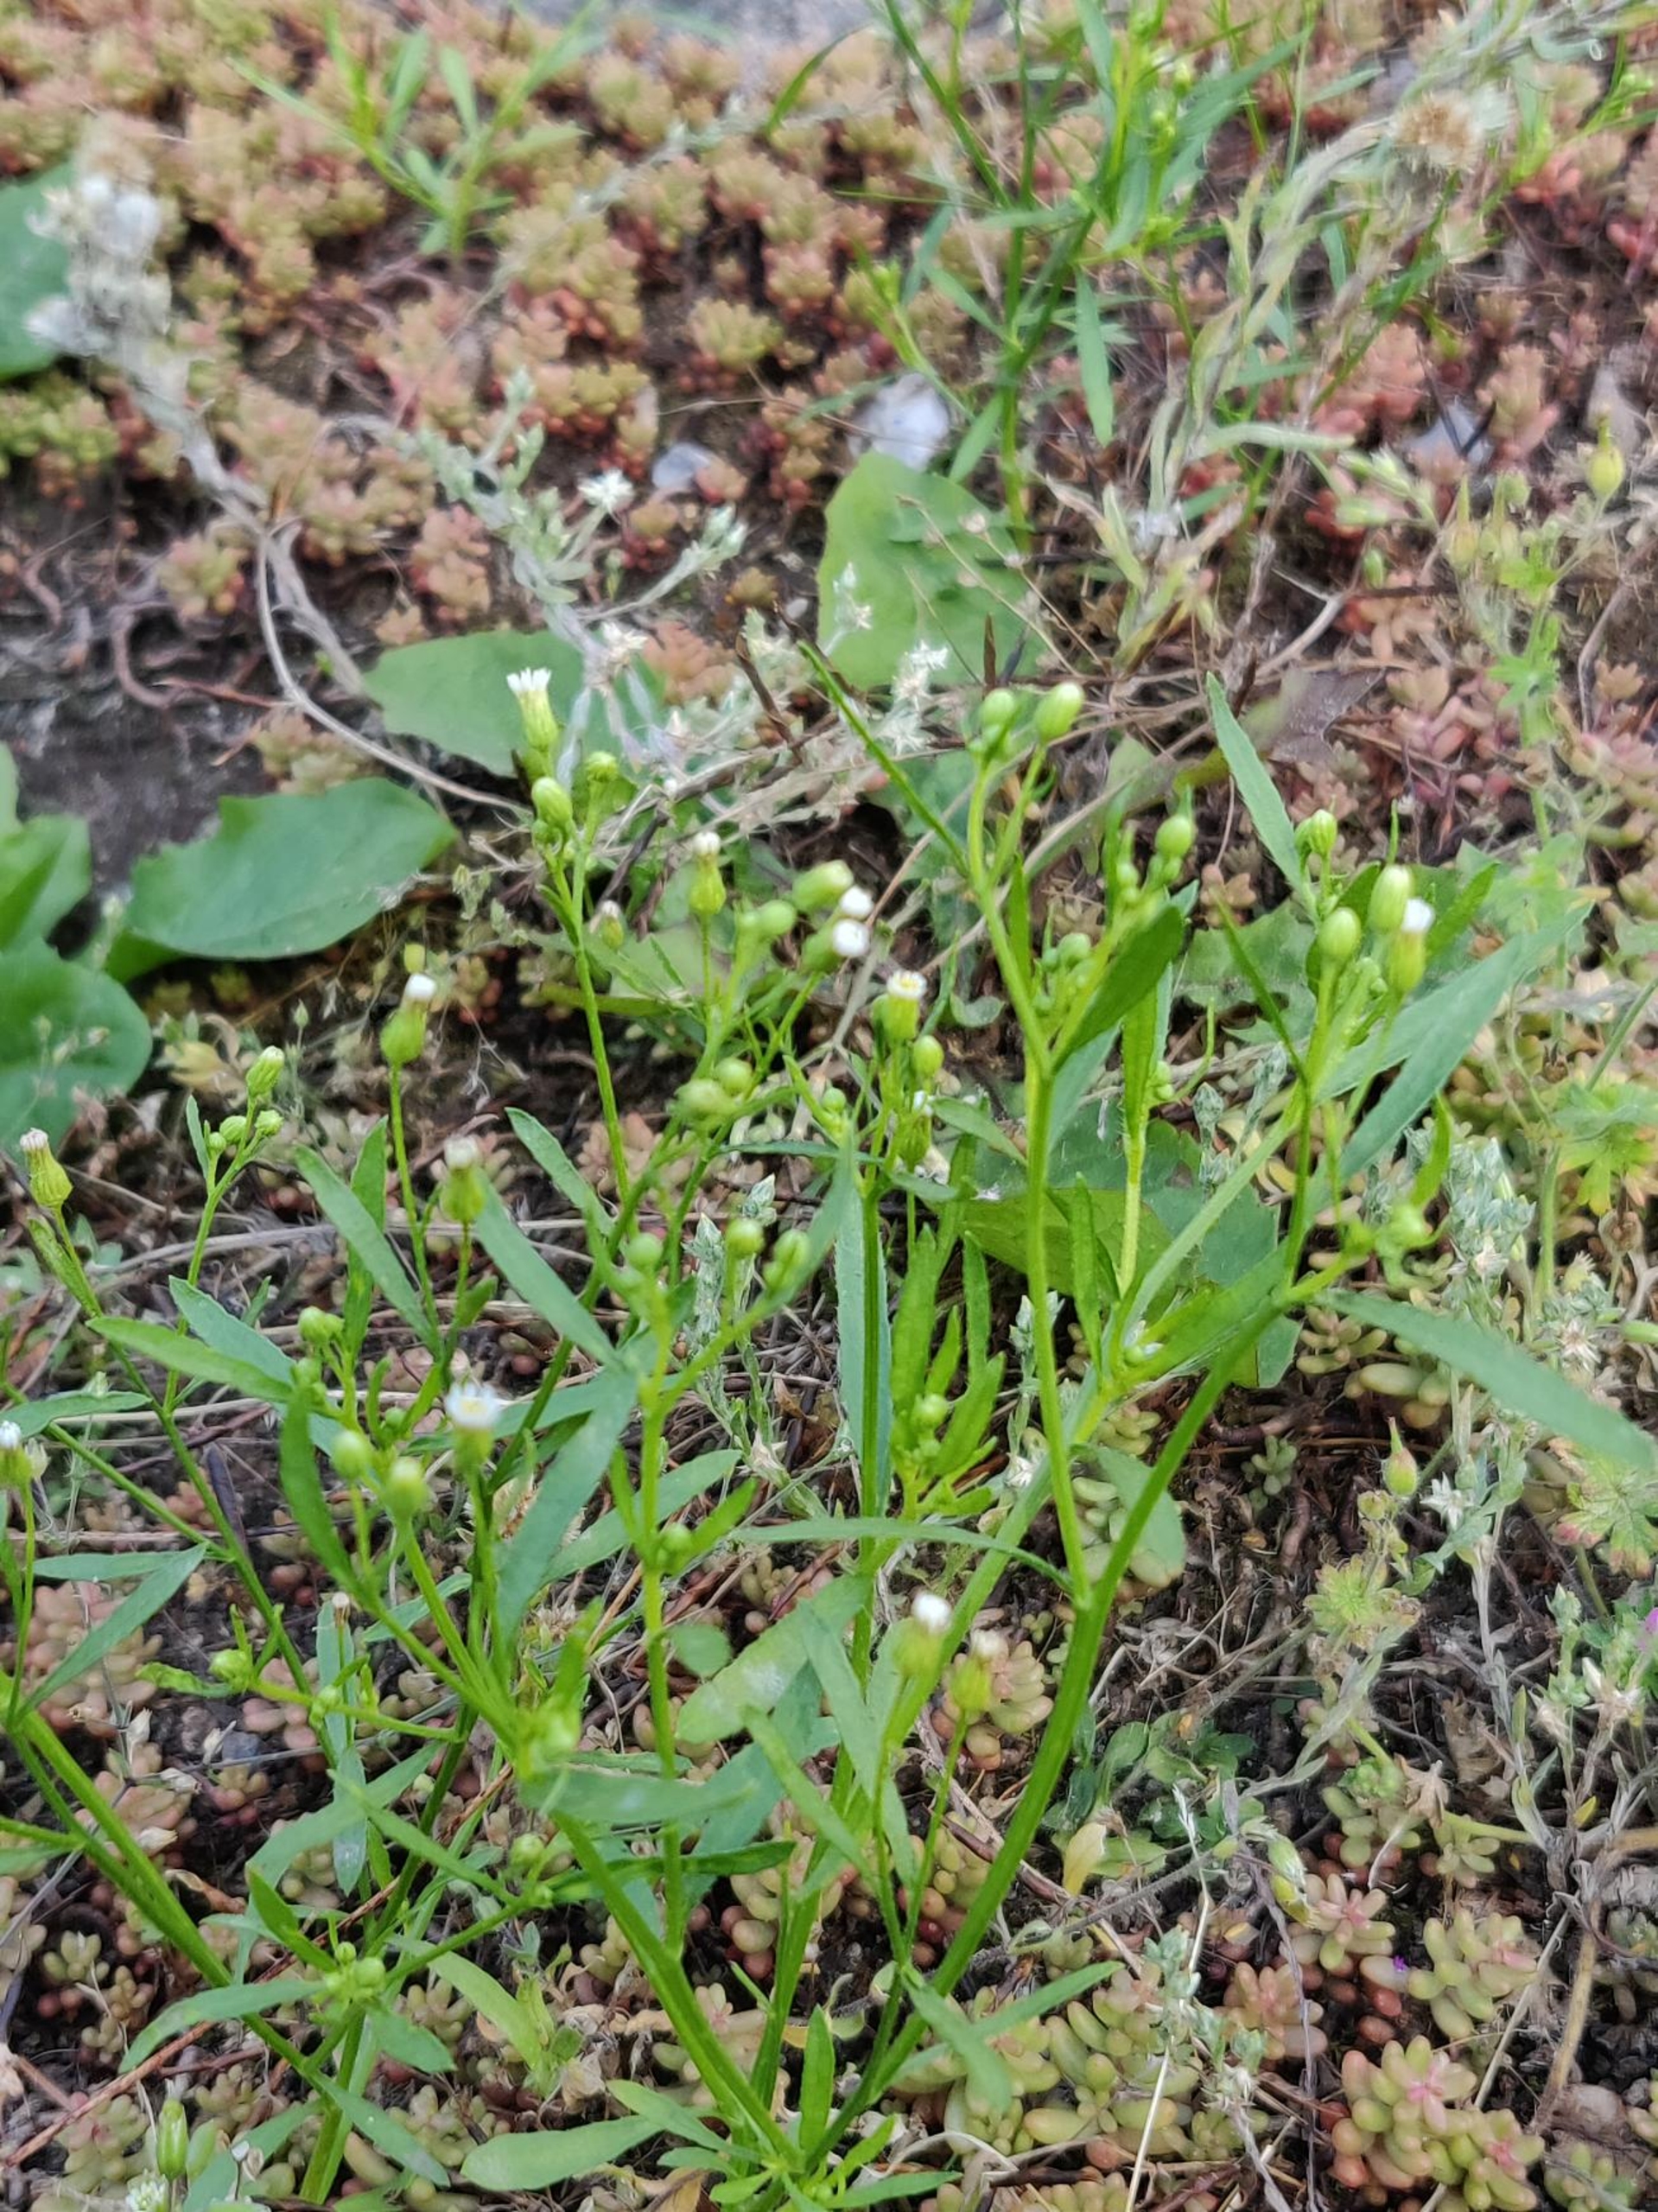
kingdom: Plantae
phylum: Tracheophyta
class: Magnoliopsida
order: Asterales
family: Asteraceae
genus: Erigeron
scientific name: Erigeron canadensis
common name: Kanadisk bakkestjerne
